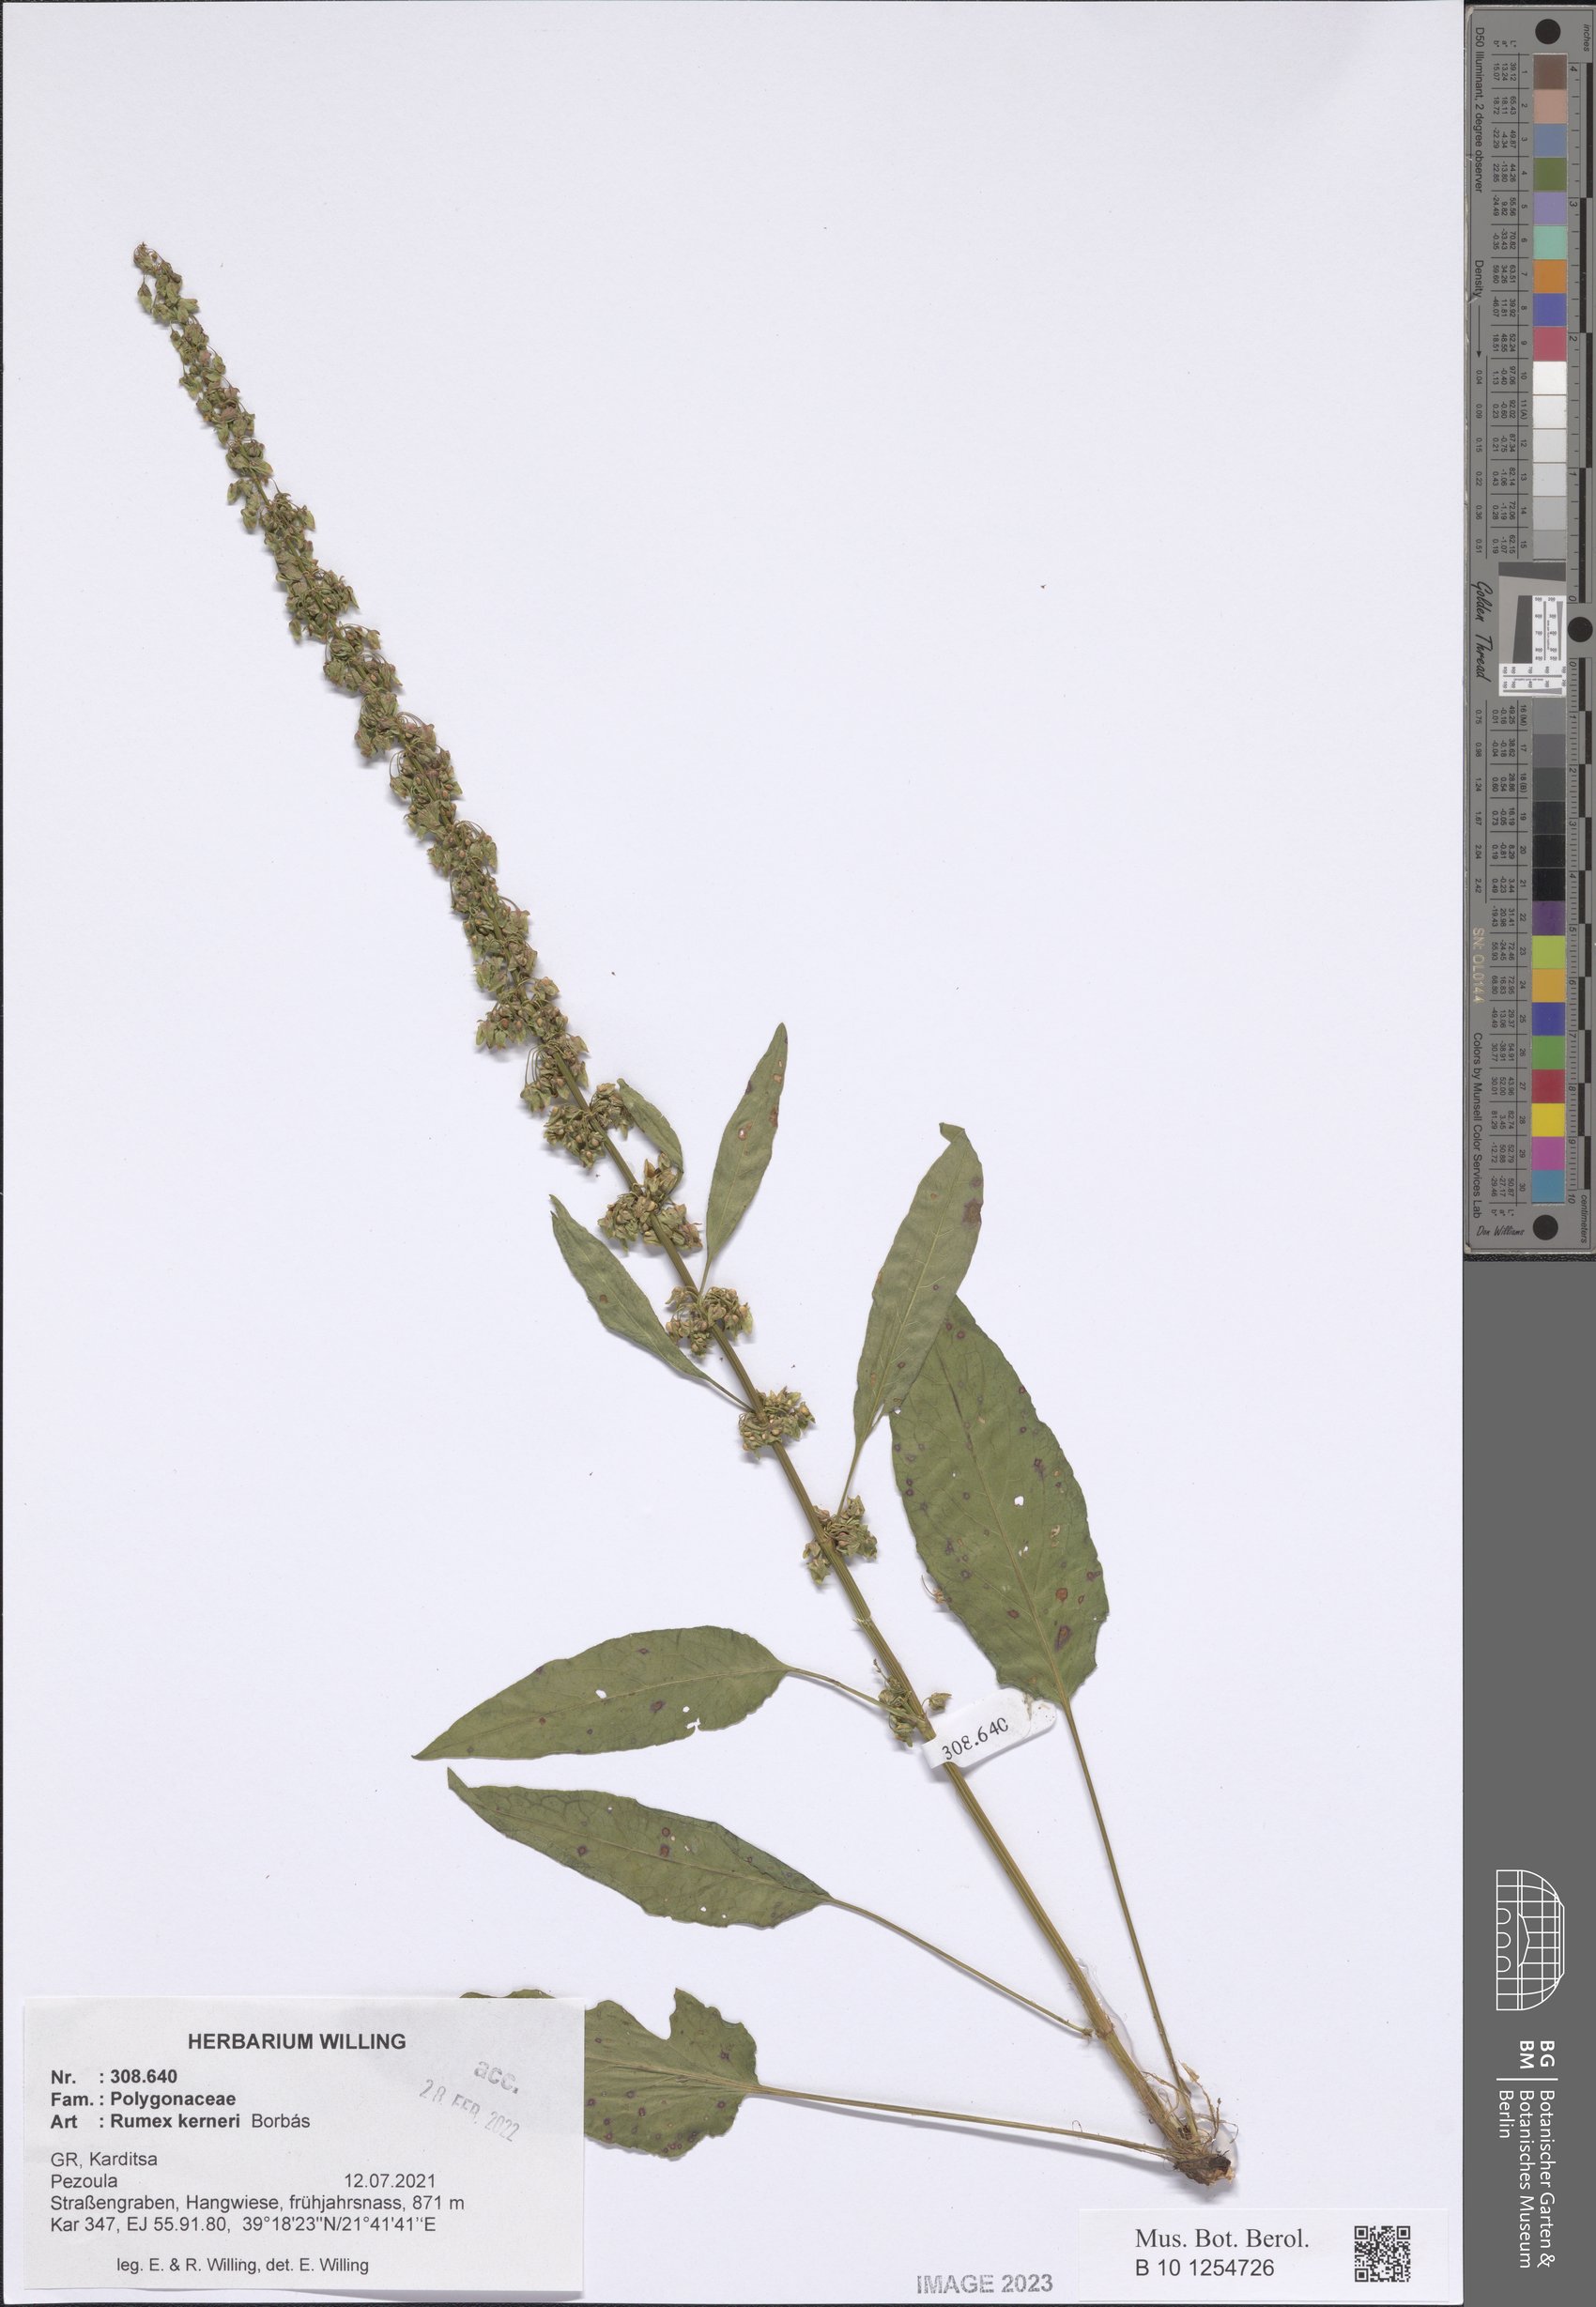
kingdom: Plantae
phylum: Tracheophyta
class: Magnoliopsida
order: Caryophyllales
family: Polygonaceae
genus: Rumex
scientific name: Rumex kerneri
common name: Kerner's dock
